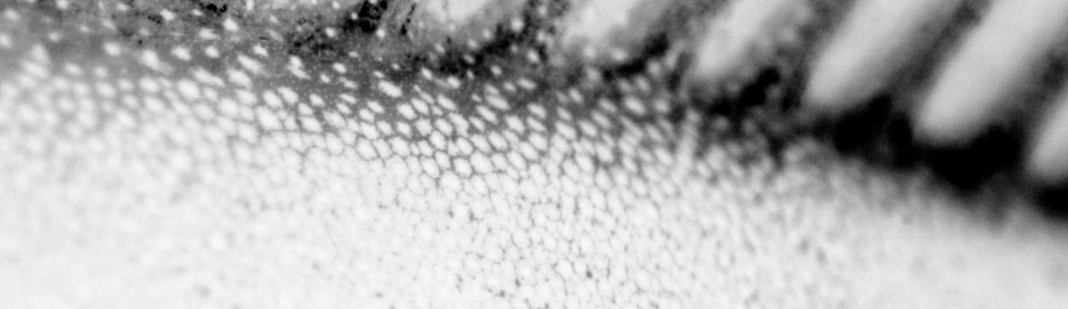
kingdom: Animalia
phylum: Chordata
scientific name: Chordata
